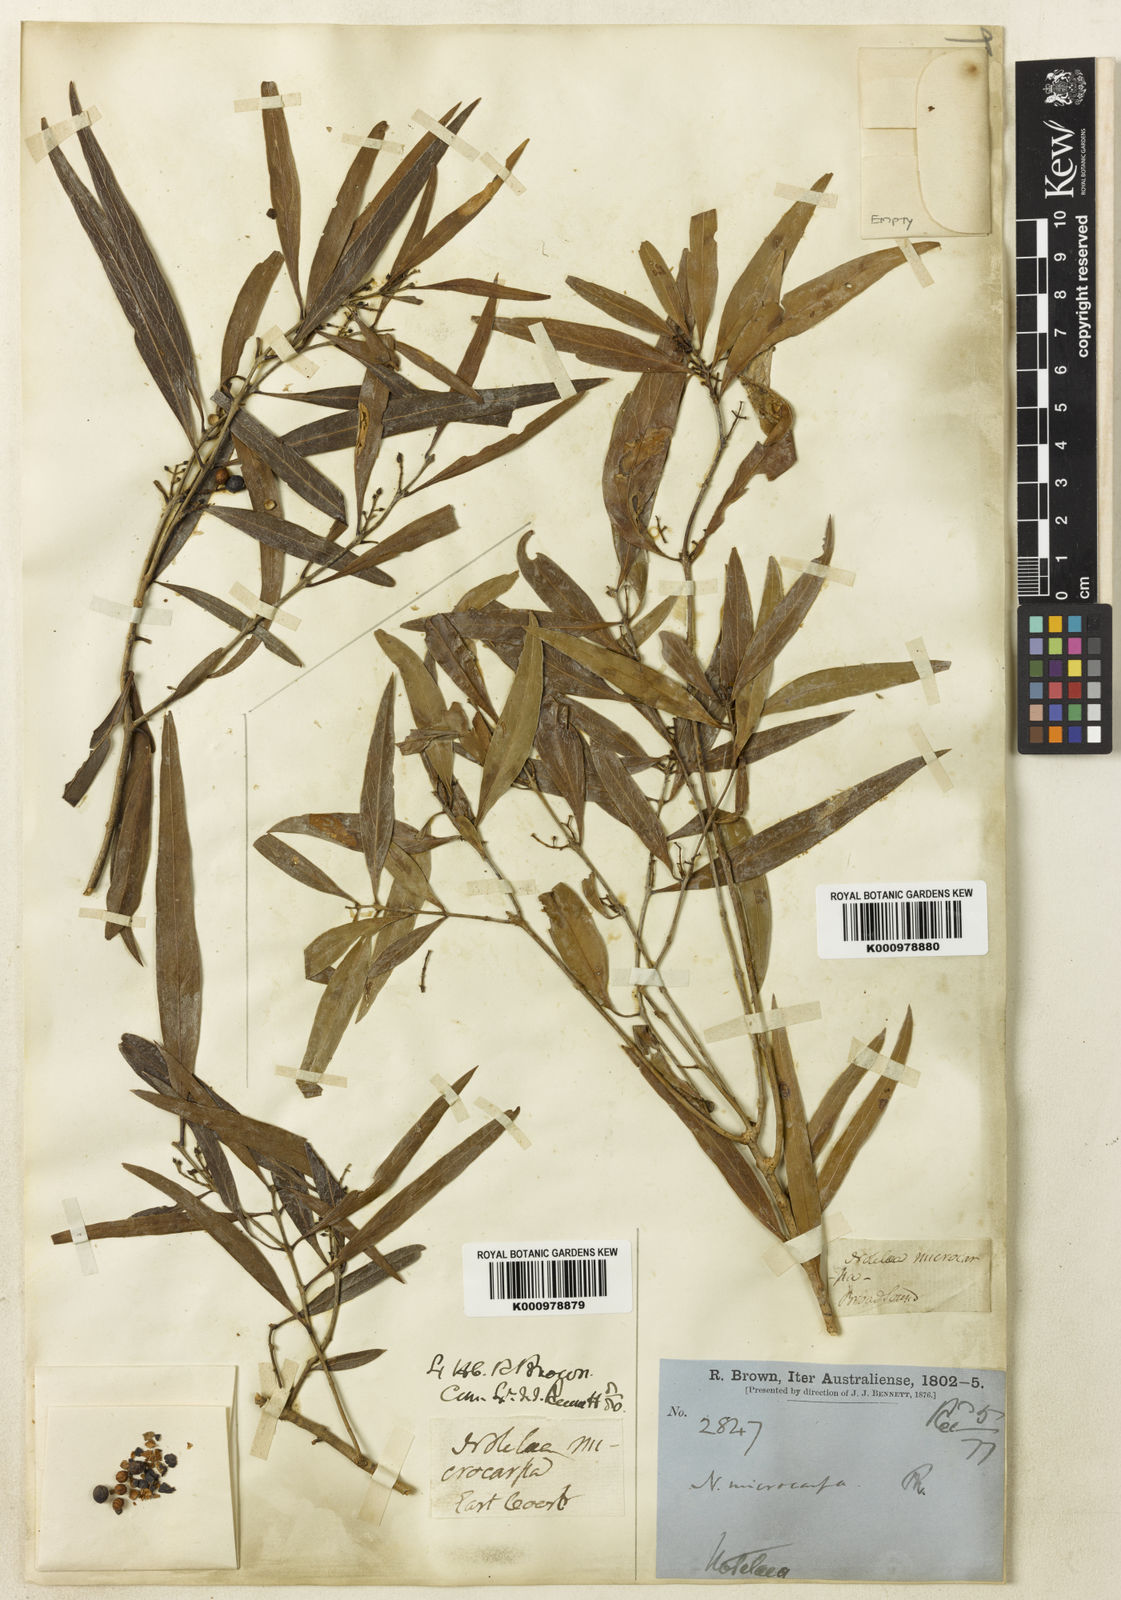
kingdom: Plantae
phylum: Tracheophyta
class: Magnoliopsida
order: Lamiales
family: Oleaceae
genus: Notelaea
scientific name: Notelaea microcarpa
